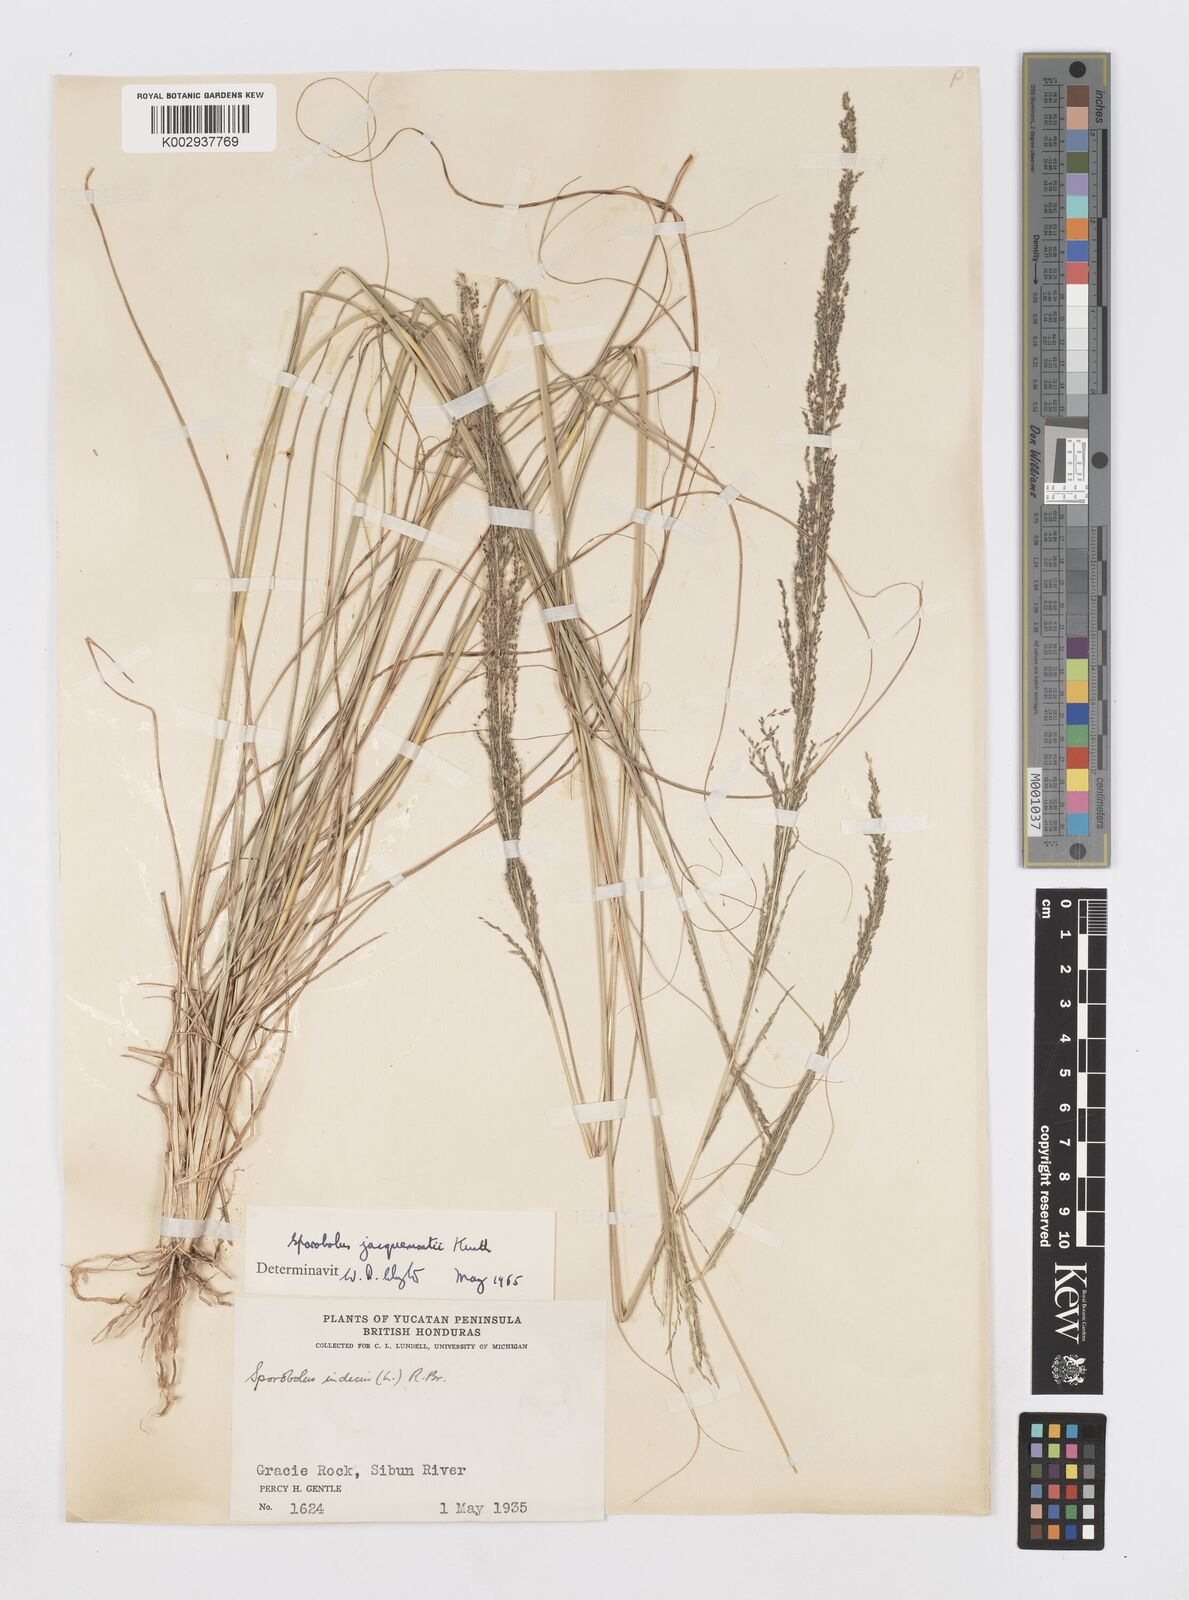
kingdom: Plantae
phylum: Tracheophyta
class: Liliopsida
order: Poales
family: Poaceae
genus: Sporobolus
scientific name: Sporobolus pyramidalis
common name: West indian dropseed
